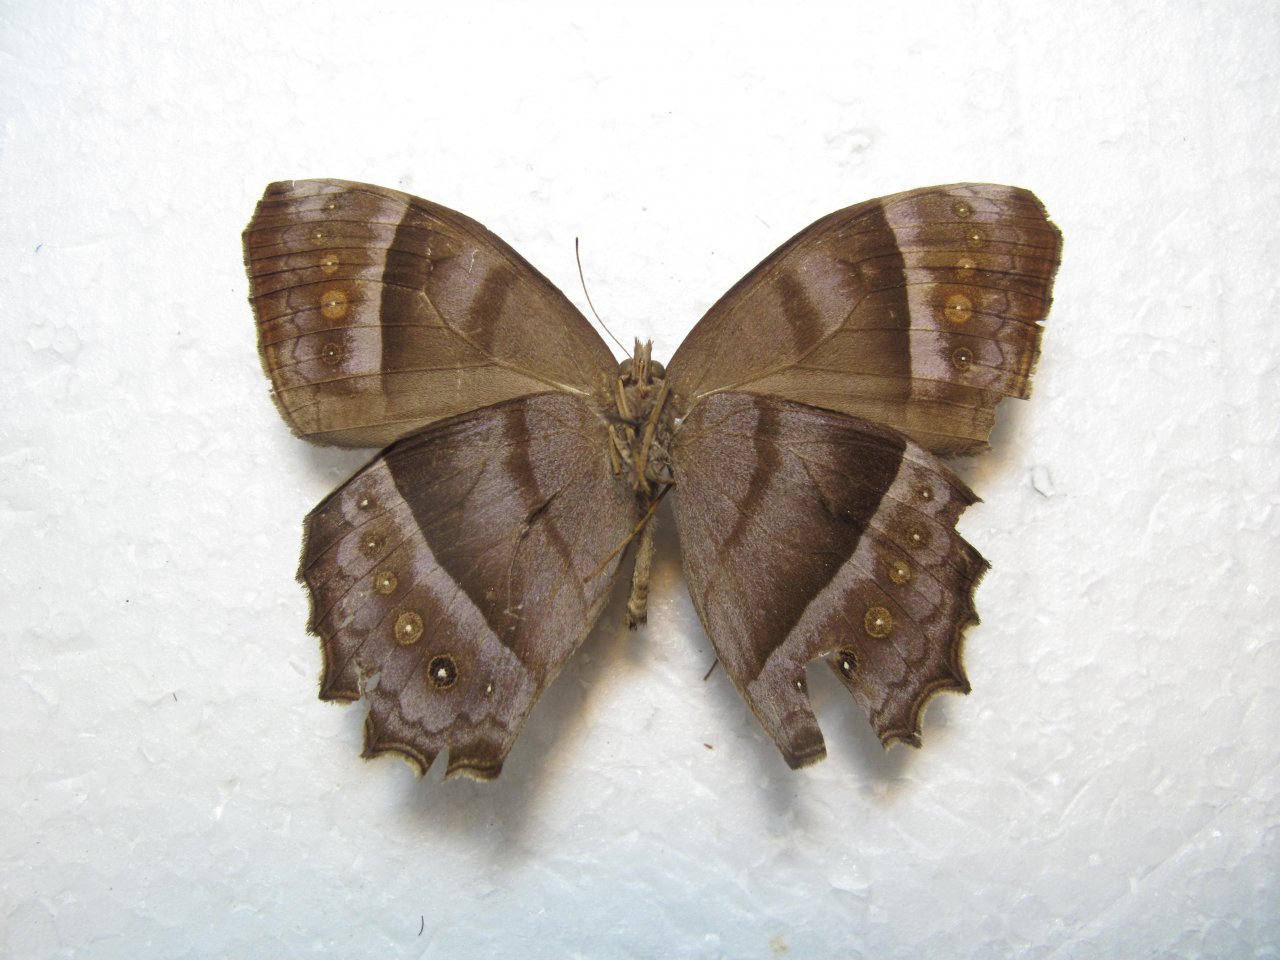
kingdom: Animalia
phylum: Arthropoda
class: Insecta
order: Lepidoptera
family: Nymphalidae
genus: Taygetis
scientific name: Taygetis thamyra
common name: Thamyra Satyr
